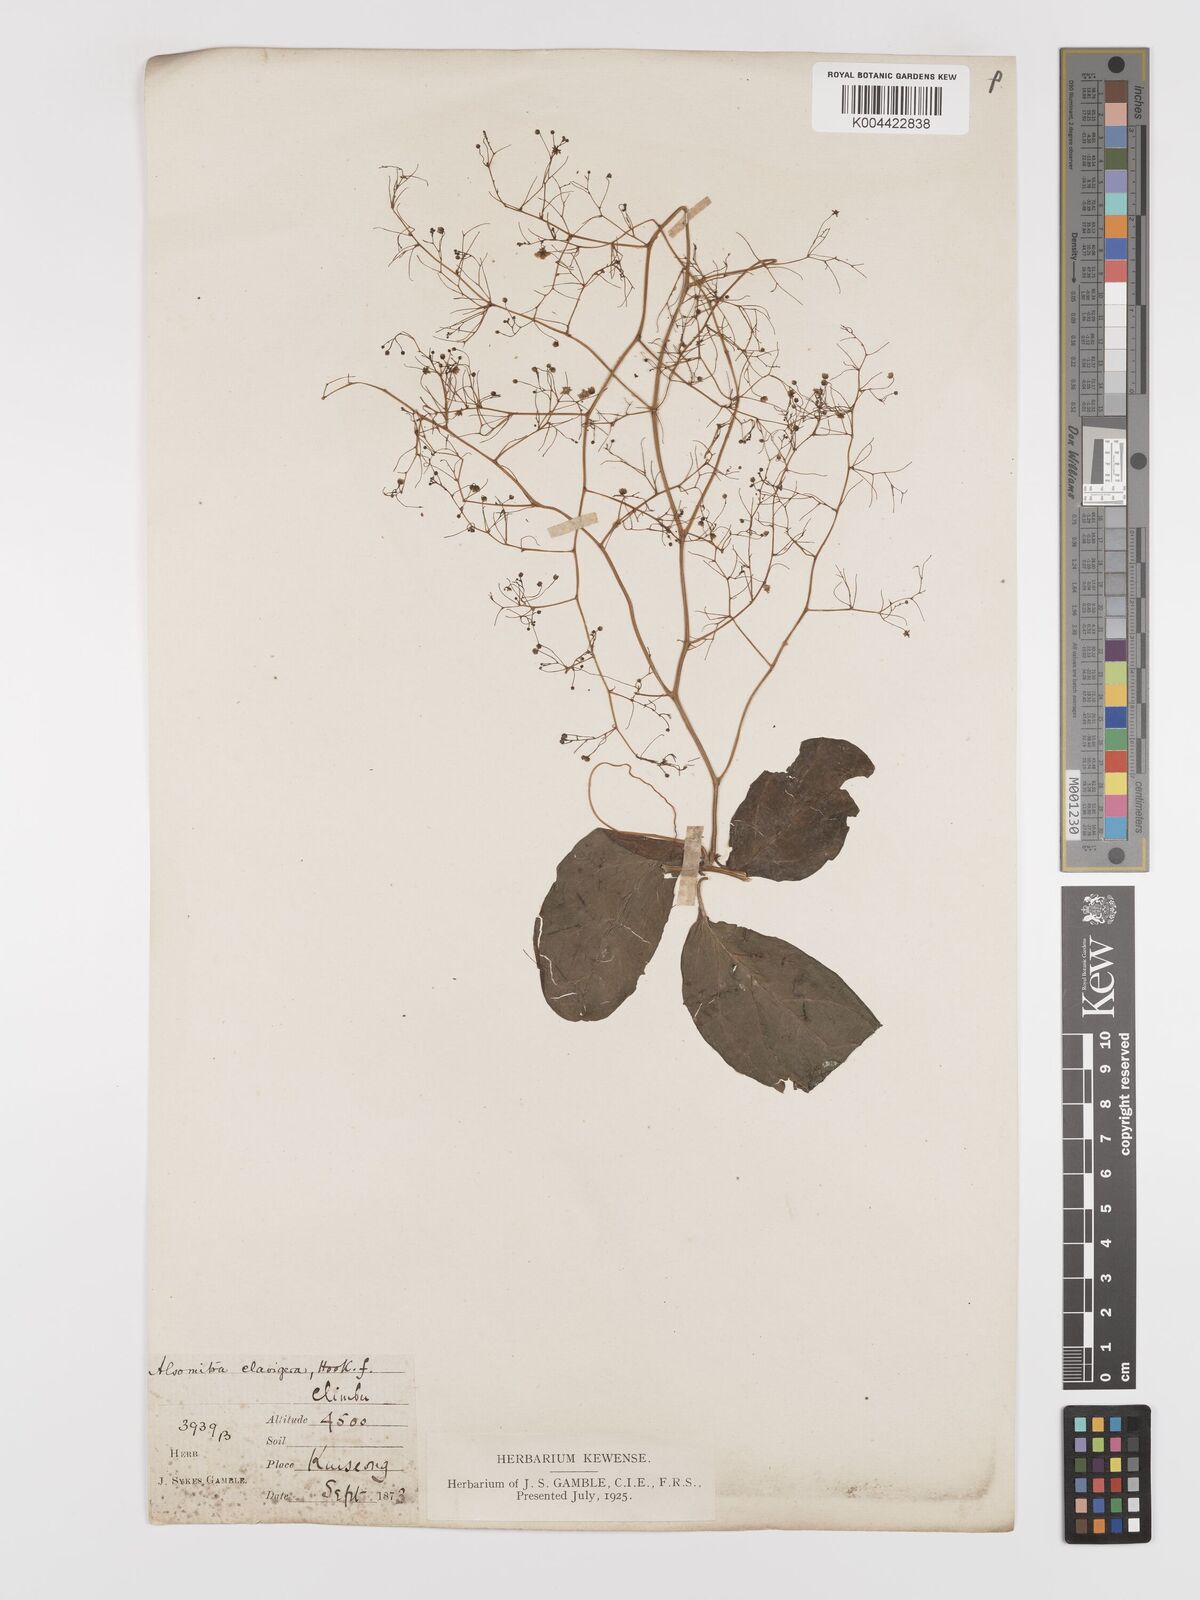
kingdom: Plantae
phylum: Tracheophyta
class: Magnoliopsida
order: Cucurbitales
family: Cucurbitaceae
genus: Neoalsomitra
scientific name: Neoalsomitra
